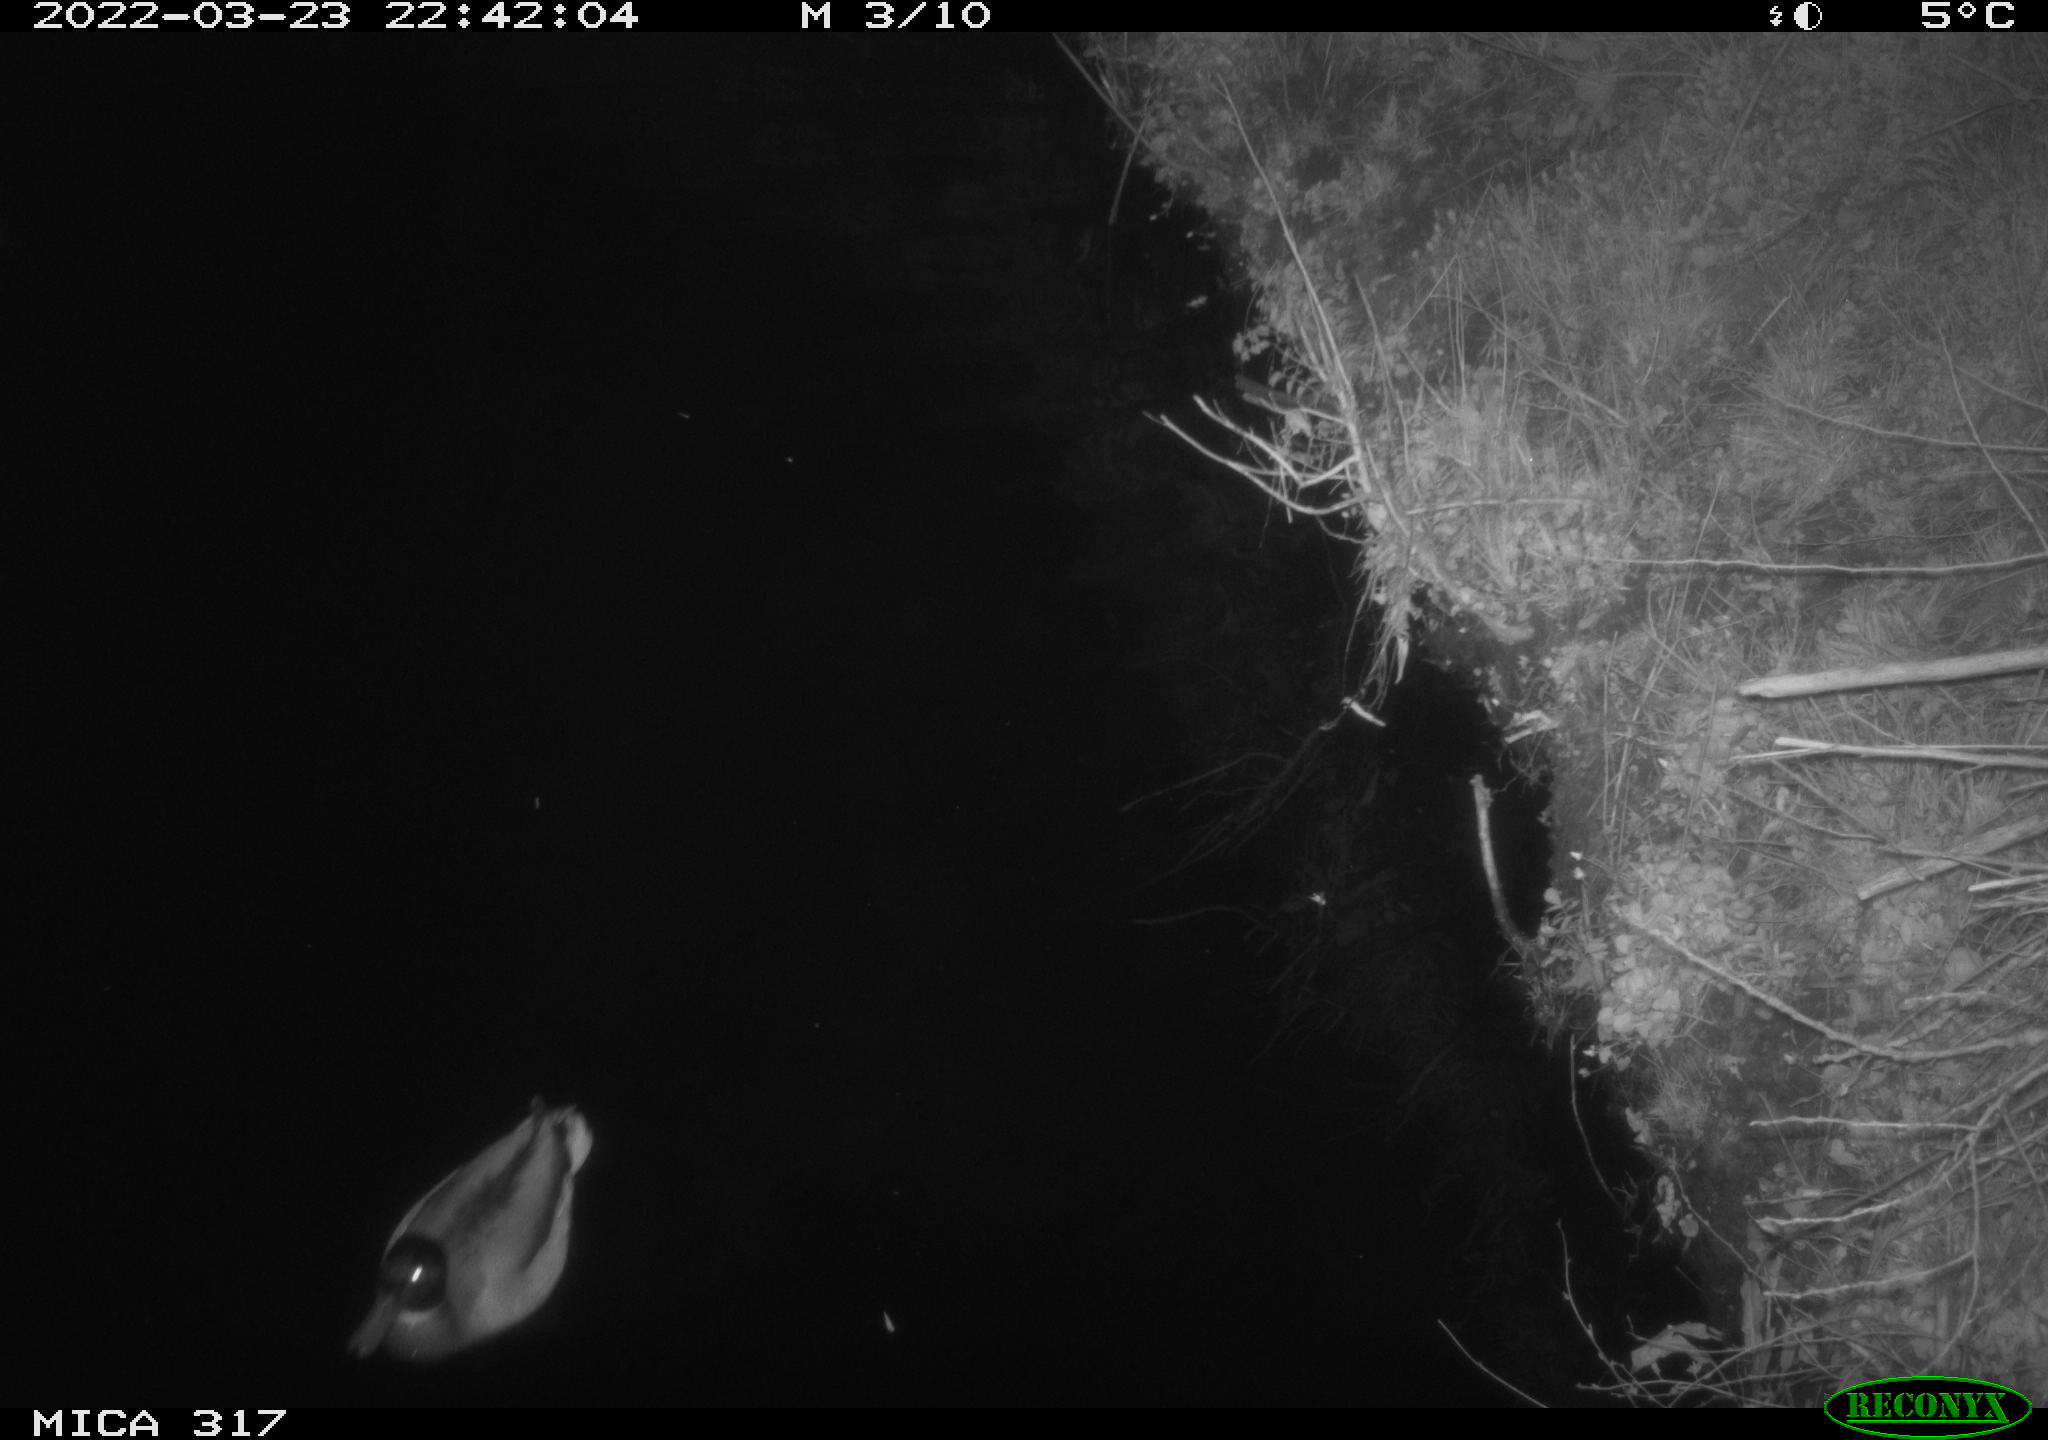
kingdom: Animalia
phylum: Chordata
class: Aves
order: Anseriformes
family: Anatidae
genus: Anas
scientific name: Anas platyrhynchos
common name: Mallard
